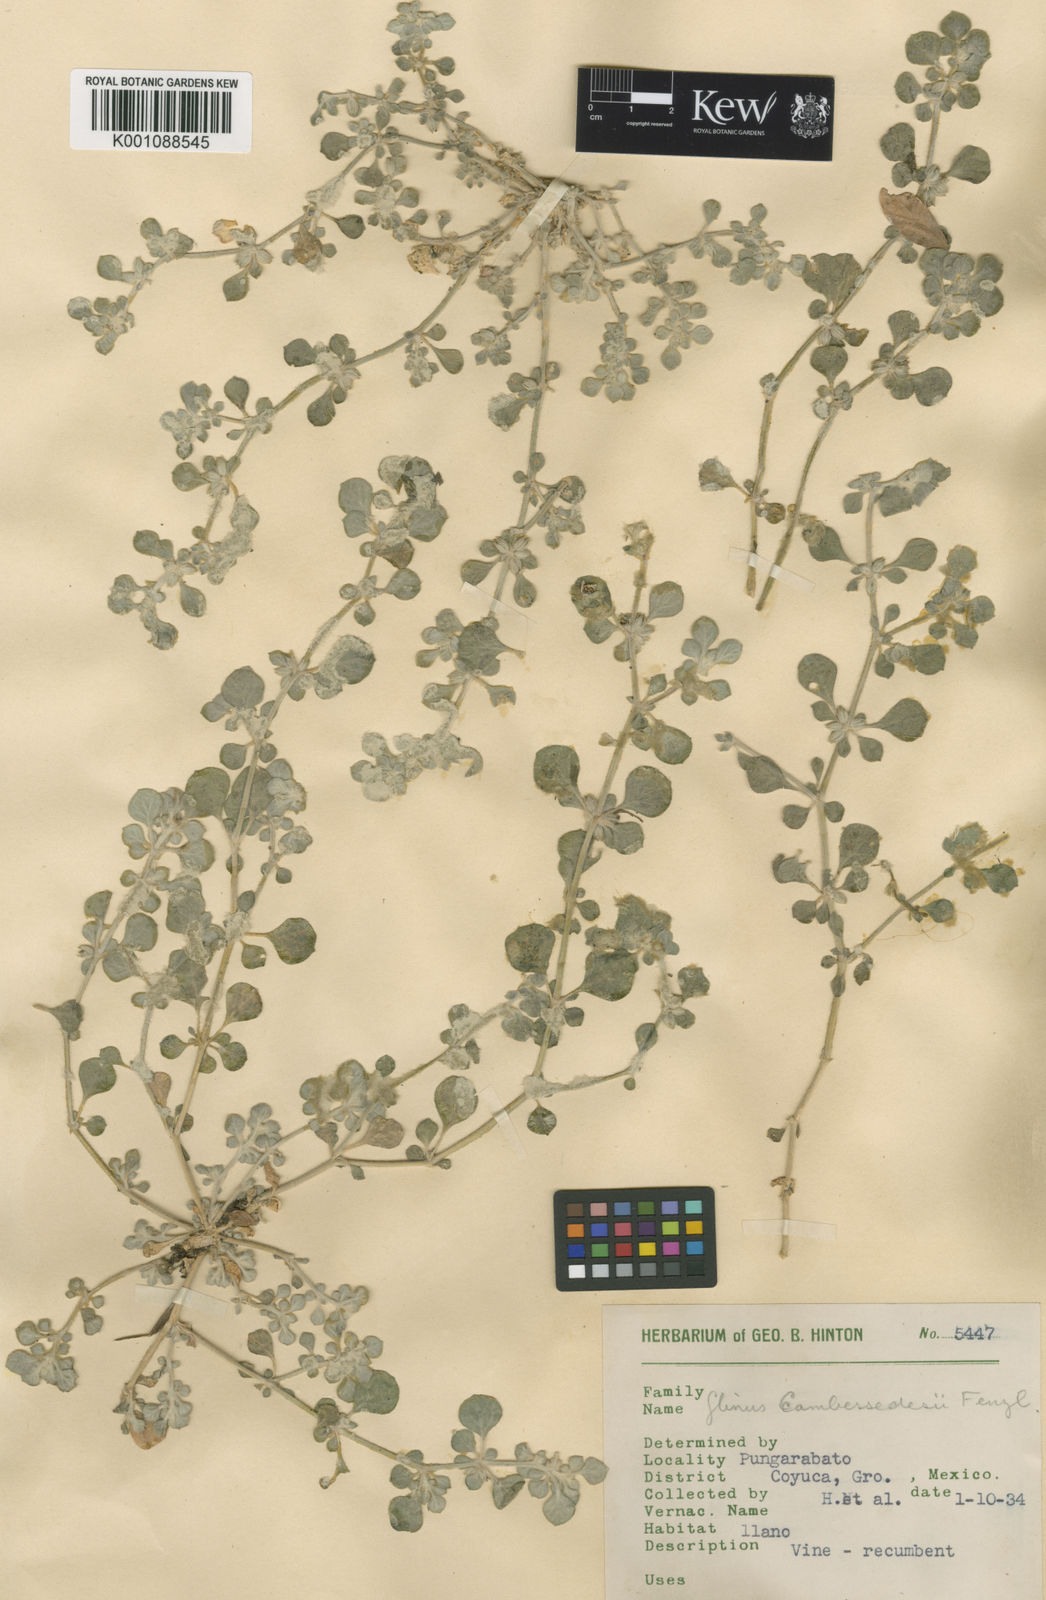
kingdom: Plantae
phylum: Tracheophyta
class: Magnoliopsida
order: Caryophyllales
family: Molluginaceae
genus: Glinus
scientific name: Glinus radiatus
